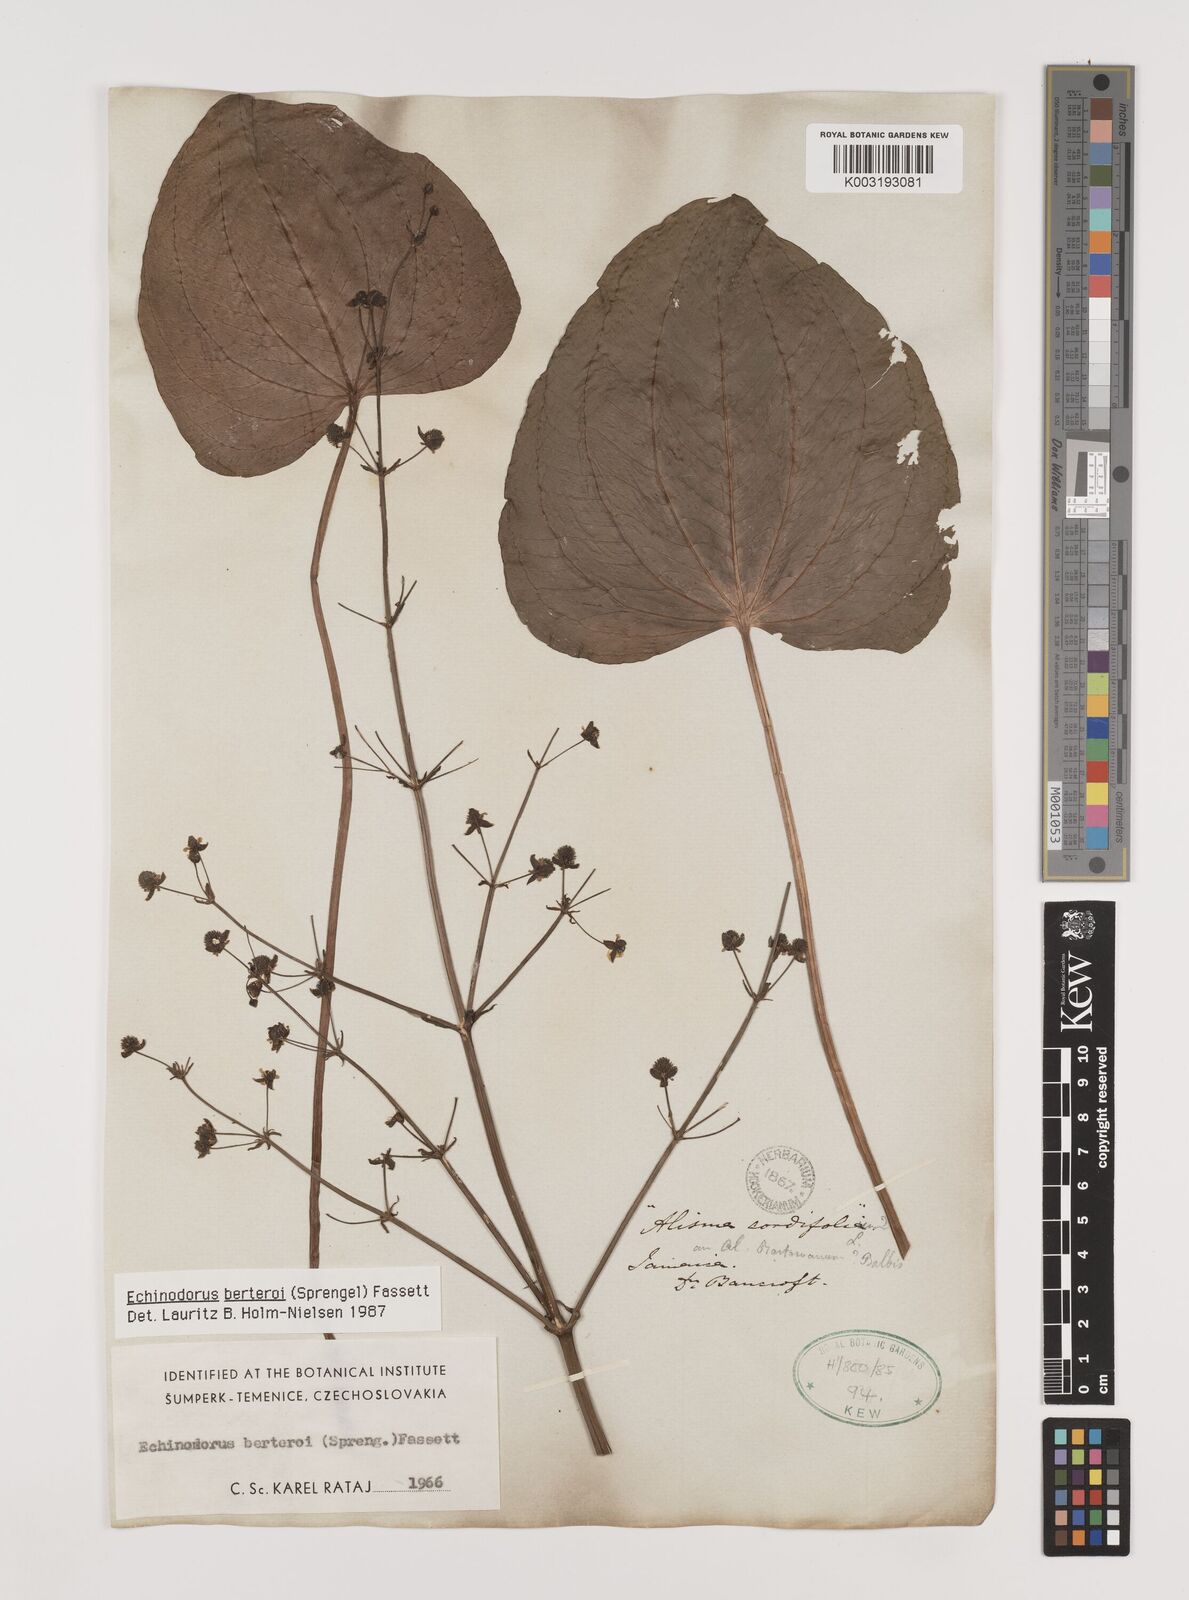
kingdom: Plantae
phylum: Tracheophyta
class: Liliopsida
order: Alismatales
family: Alismataceae
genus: Echinodorus
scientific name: Echinodorus berteroi
